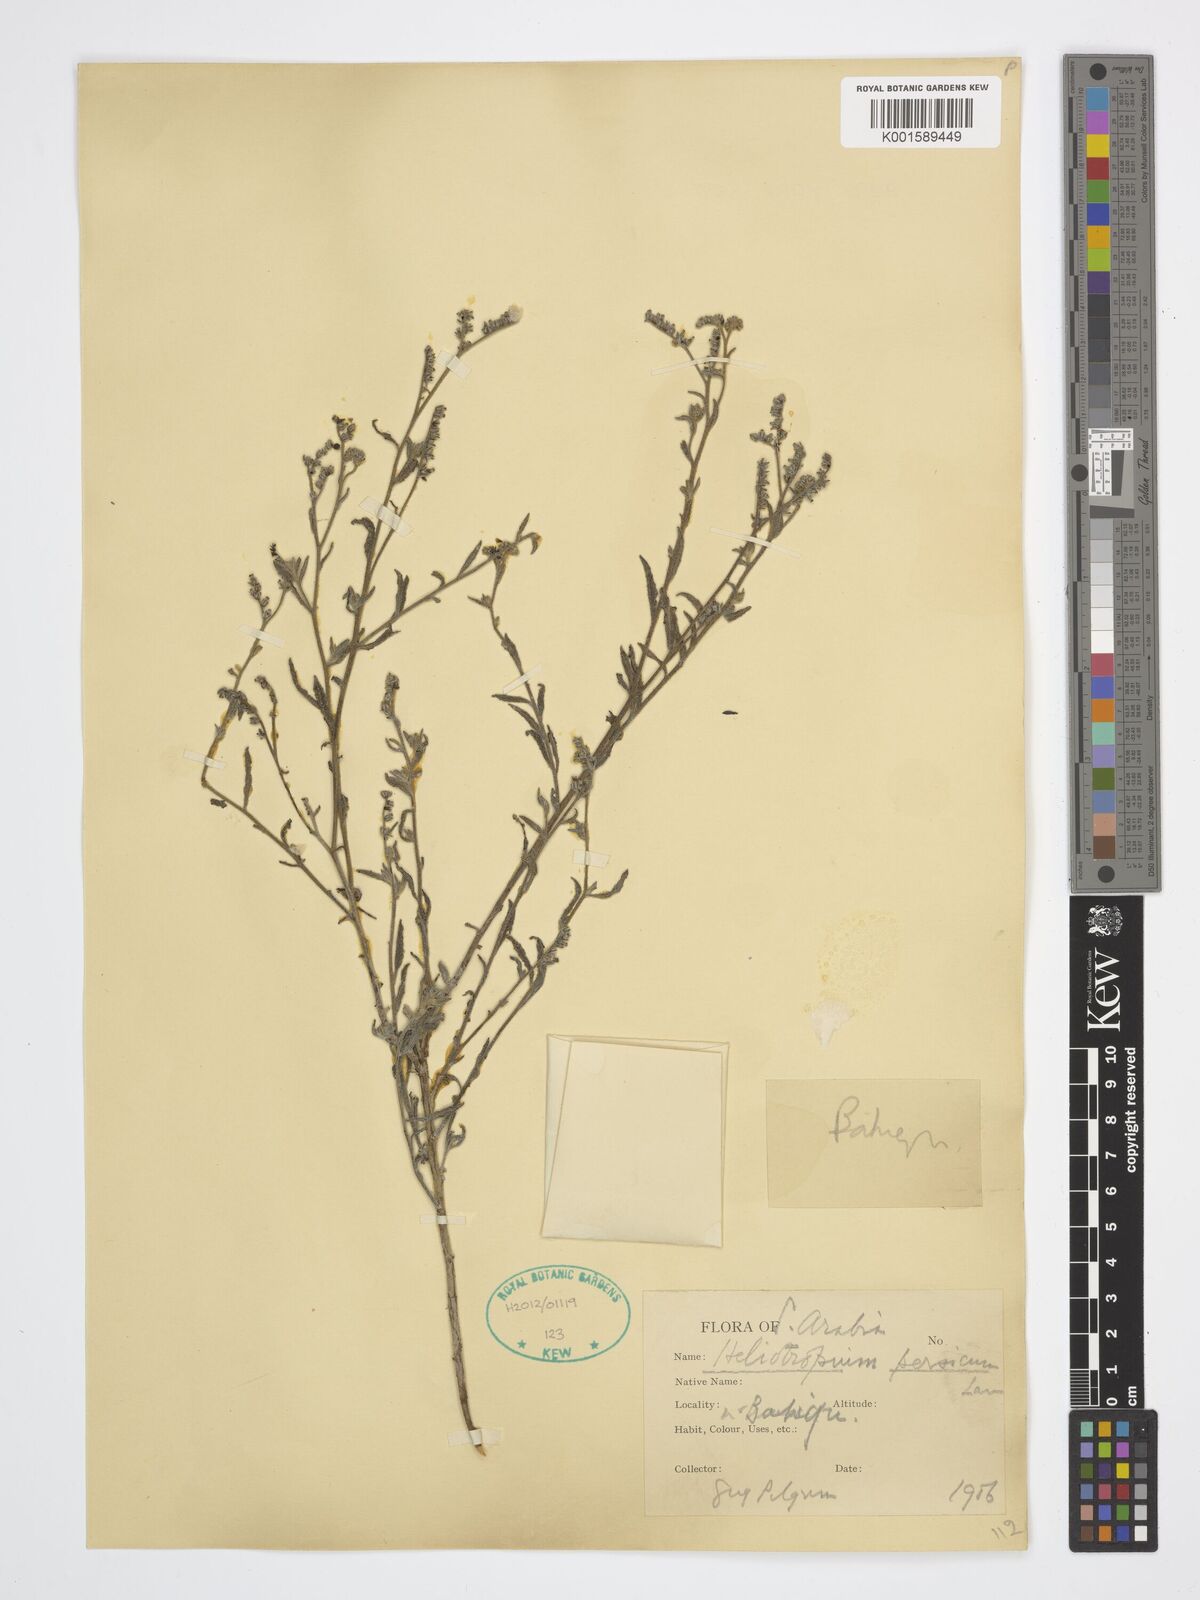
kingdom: Plantae
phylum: Tracheophyta
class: Magnoliopsida
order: Boraginales
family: Boraginaceae
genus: Echiochilon
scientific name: Echiochilon persicum
